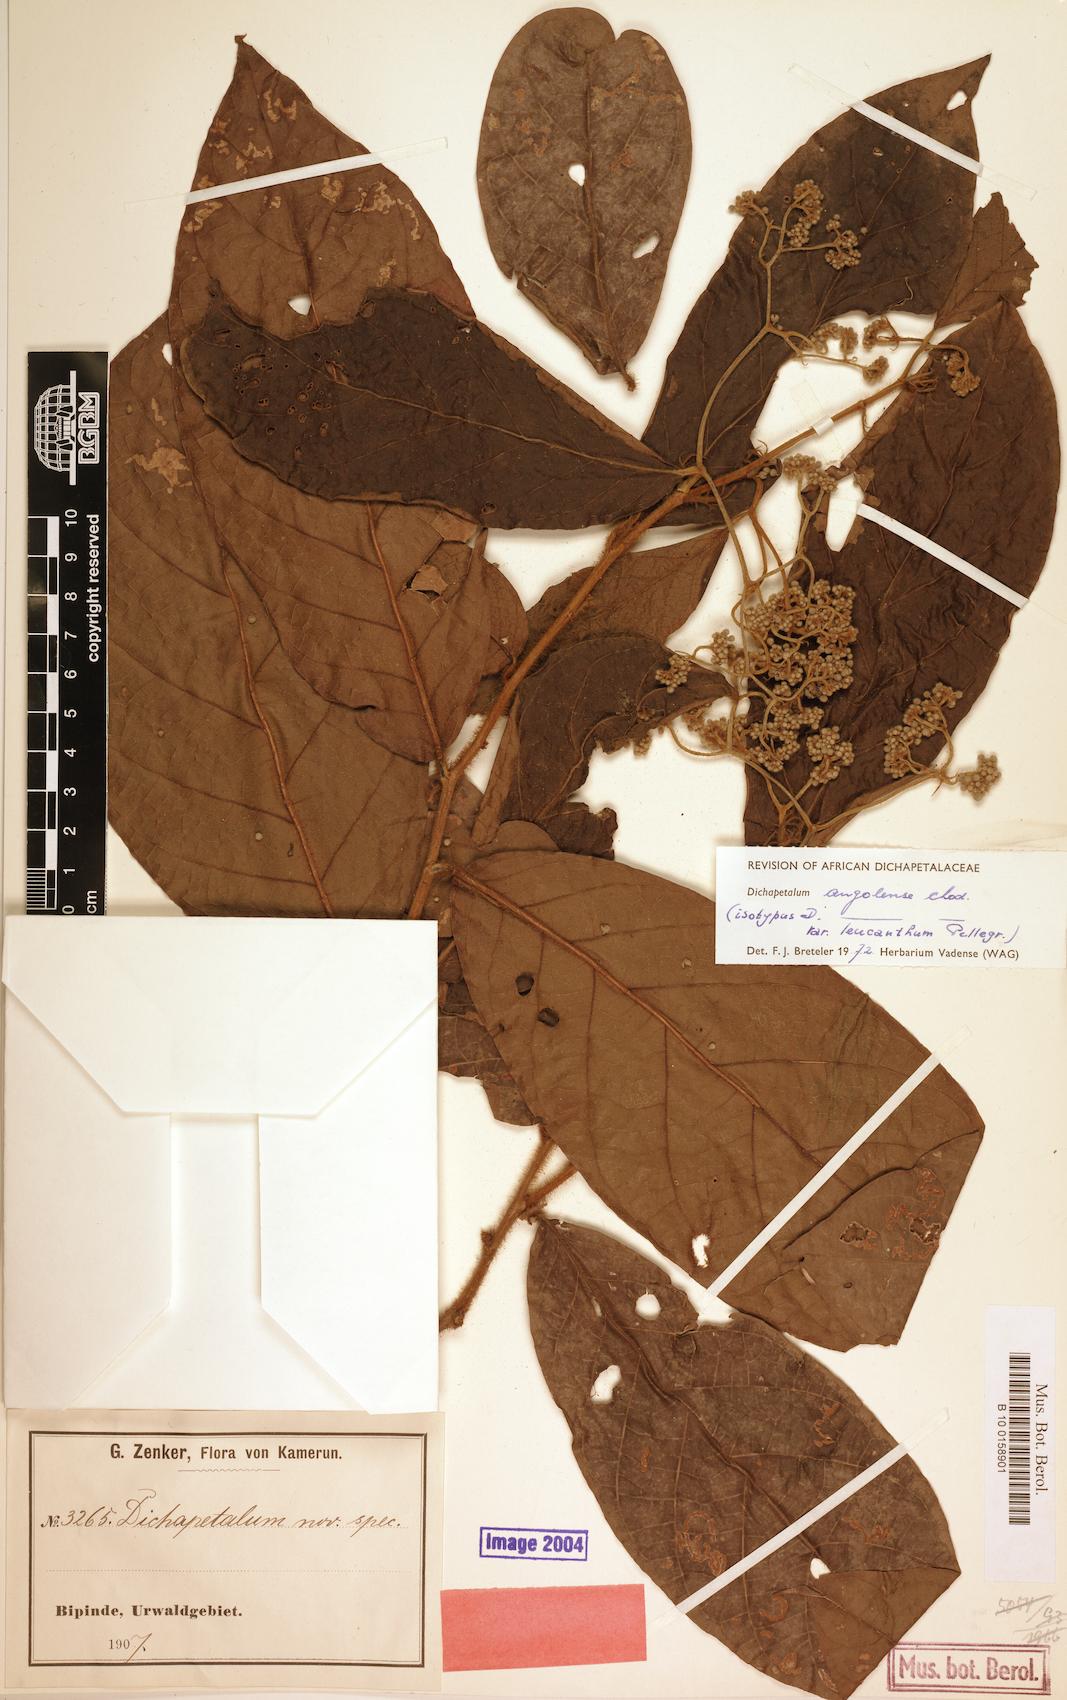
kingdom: Plantae
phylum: Tracheophyta
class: Magnoliopsida
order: Malpighiales
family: Dichapetalaceae
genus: Dichapetalum
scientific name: Dichapetalum angolense
